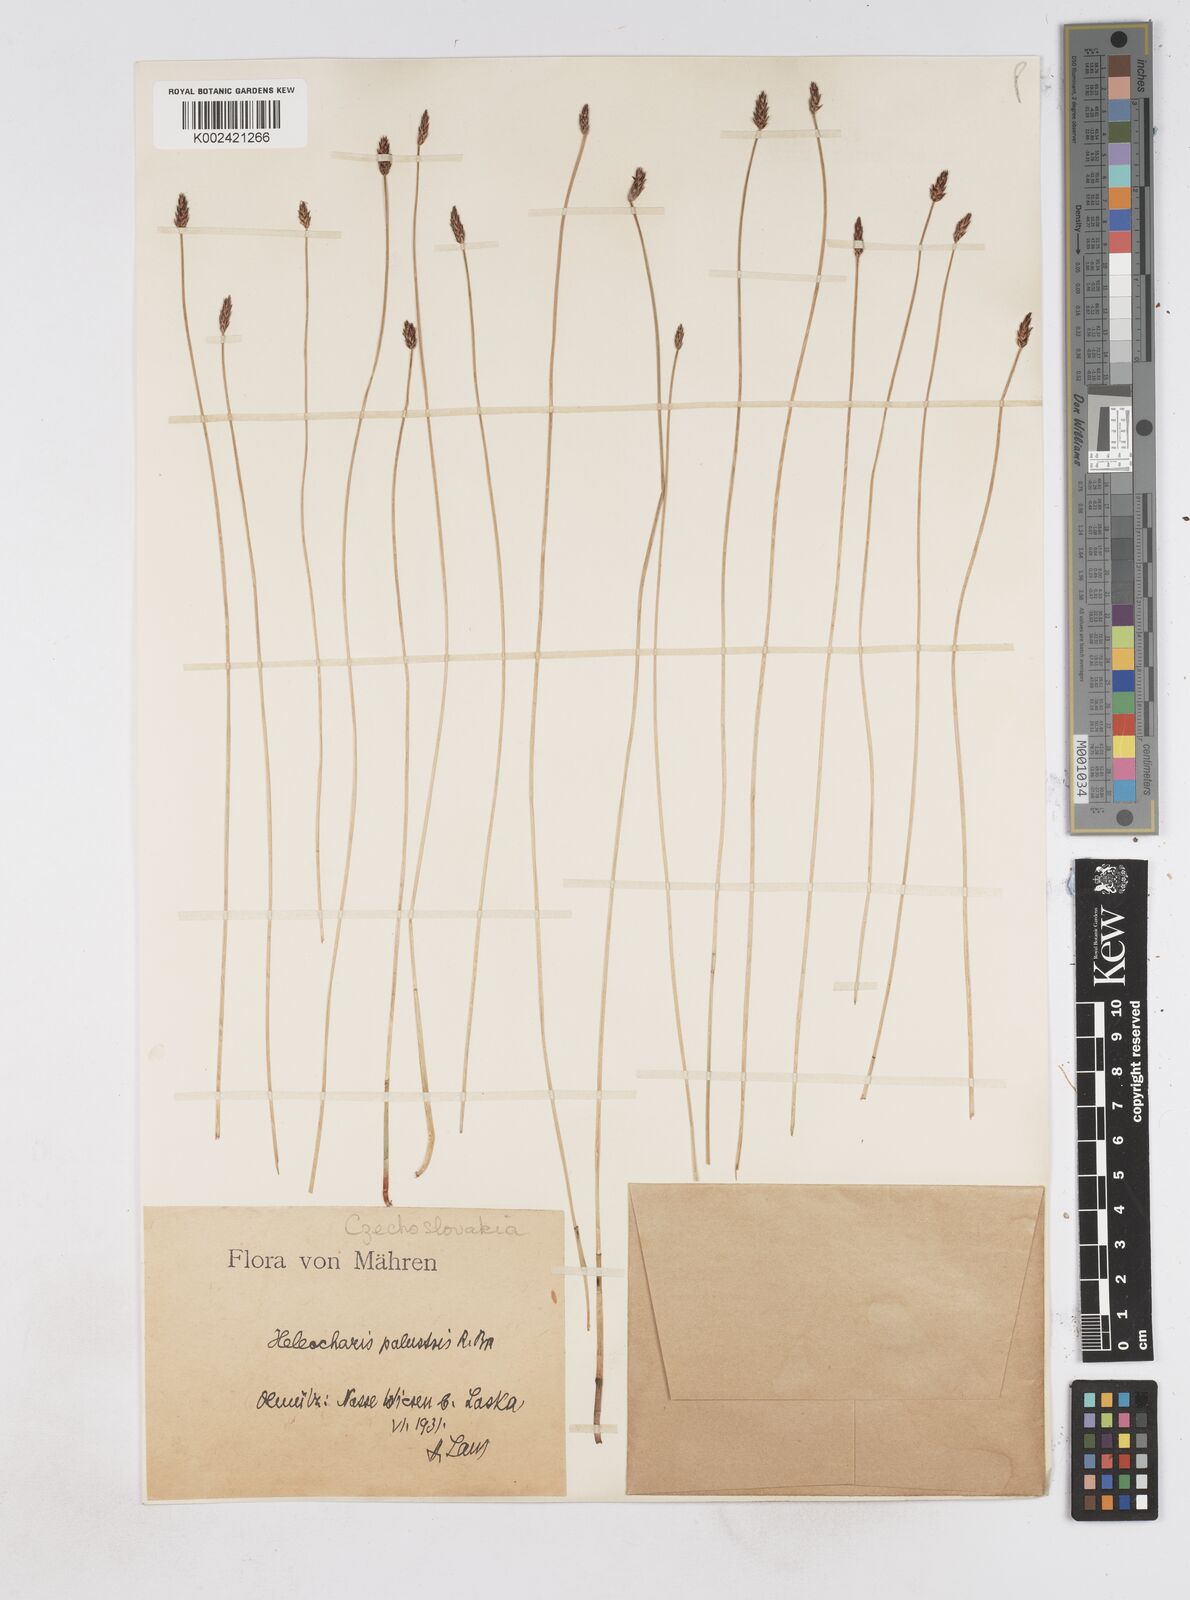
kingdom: Plantae
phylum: Tracheophyta
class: Liliopsida
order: Poales
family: Cyperaceae
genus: Eleocharis
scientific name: Eleocharis palustris
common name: Common spike-rush
